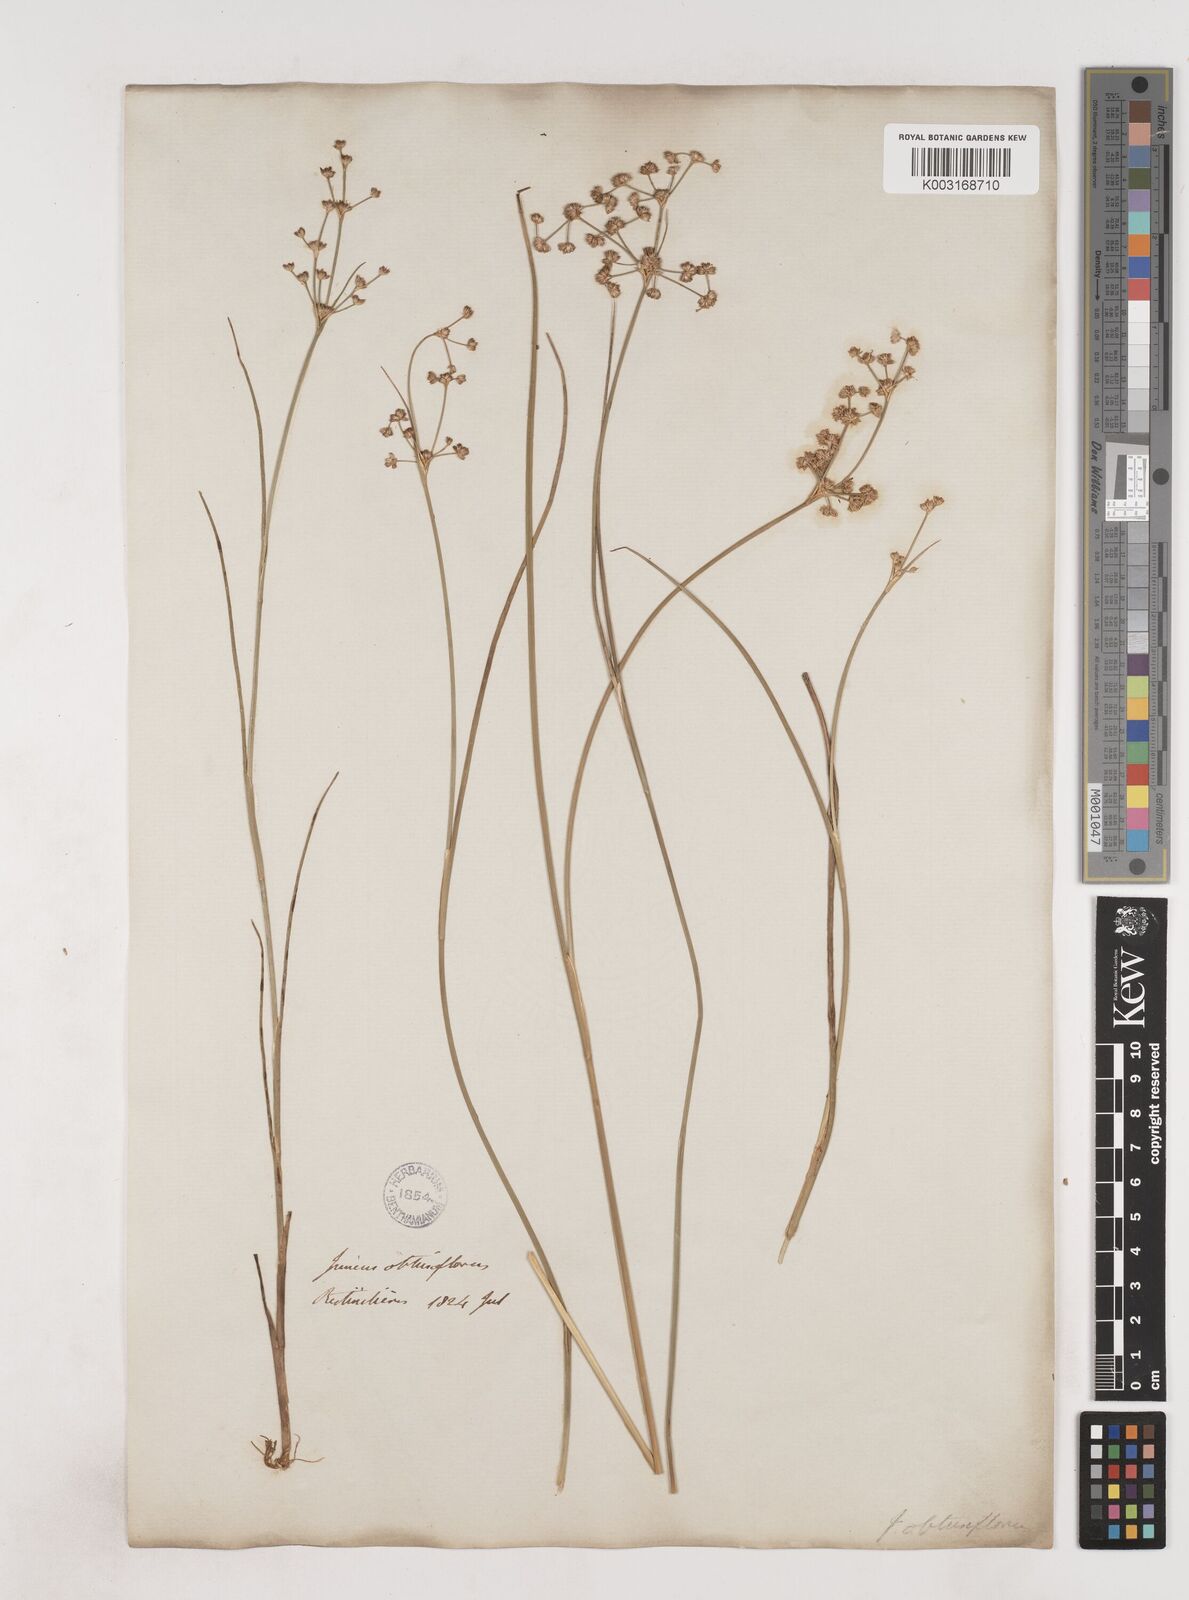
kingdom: Plantae
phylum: Tracheophyta
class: Liliopsida
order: Poales
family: Juncaceae
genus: Juncus
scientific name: Juncus subnodulosus
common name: Blunt-flowered rush
